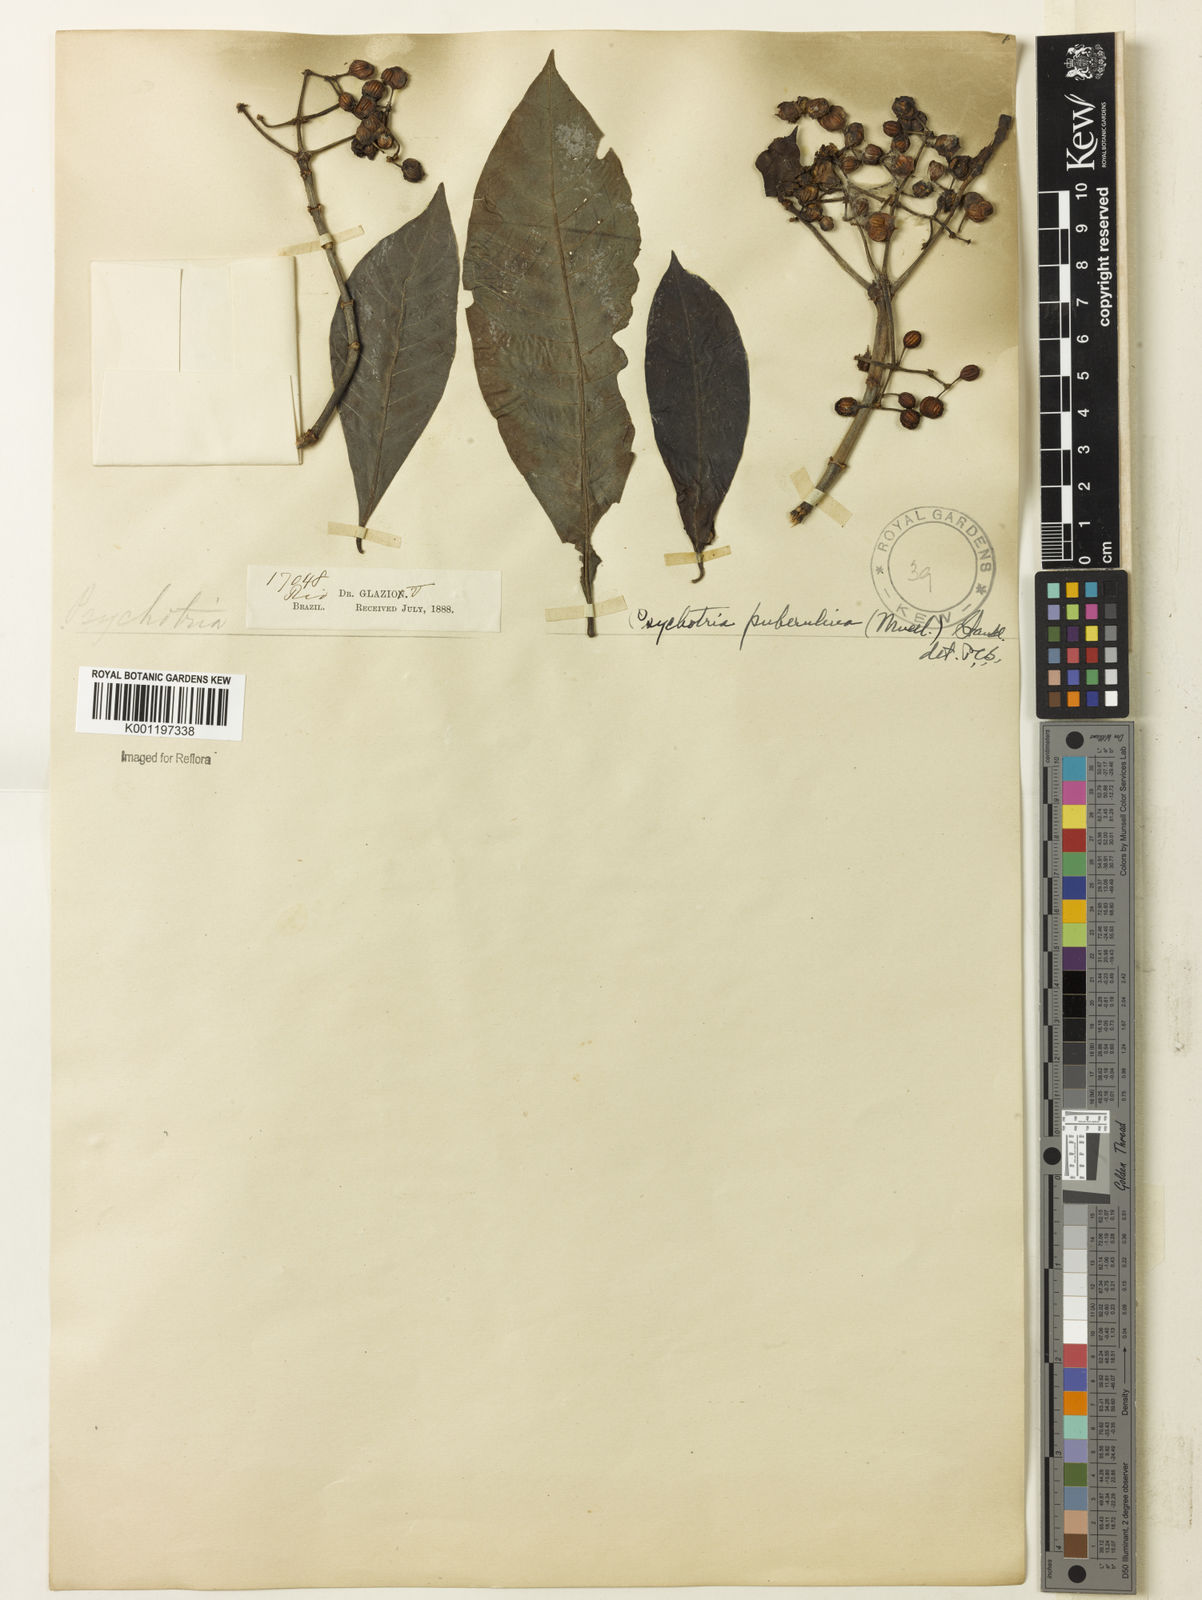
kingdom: Plantae
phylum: Tracheophyta
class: Magnoliopsida
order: Gentianales
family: Rubiaceae
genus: Psychotria
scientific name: Psychotria
